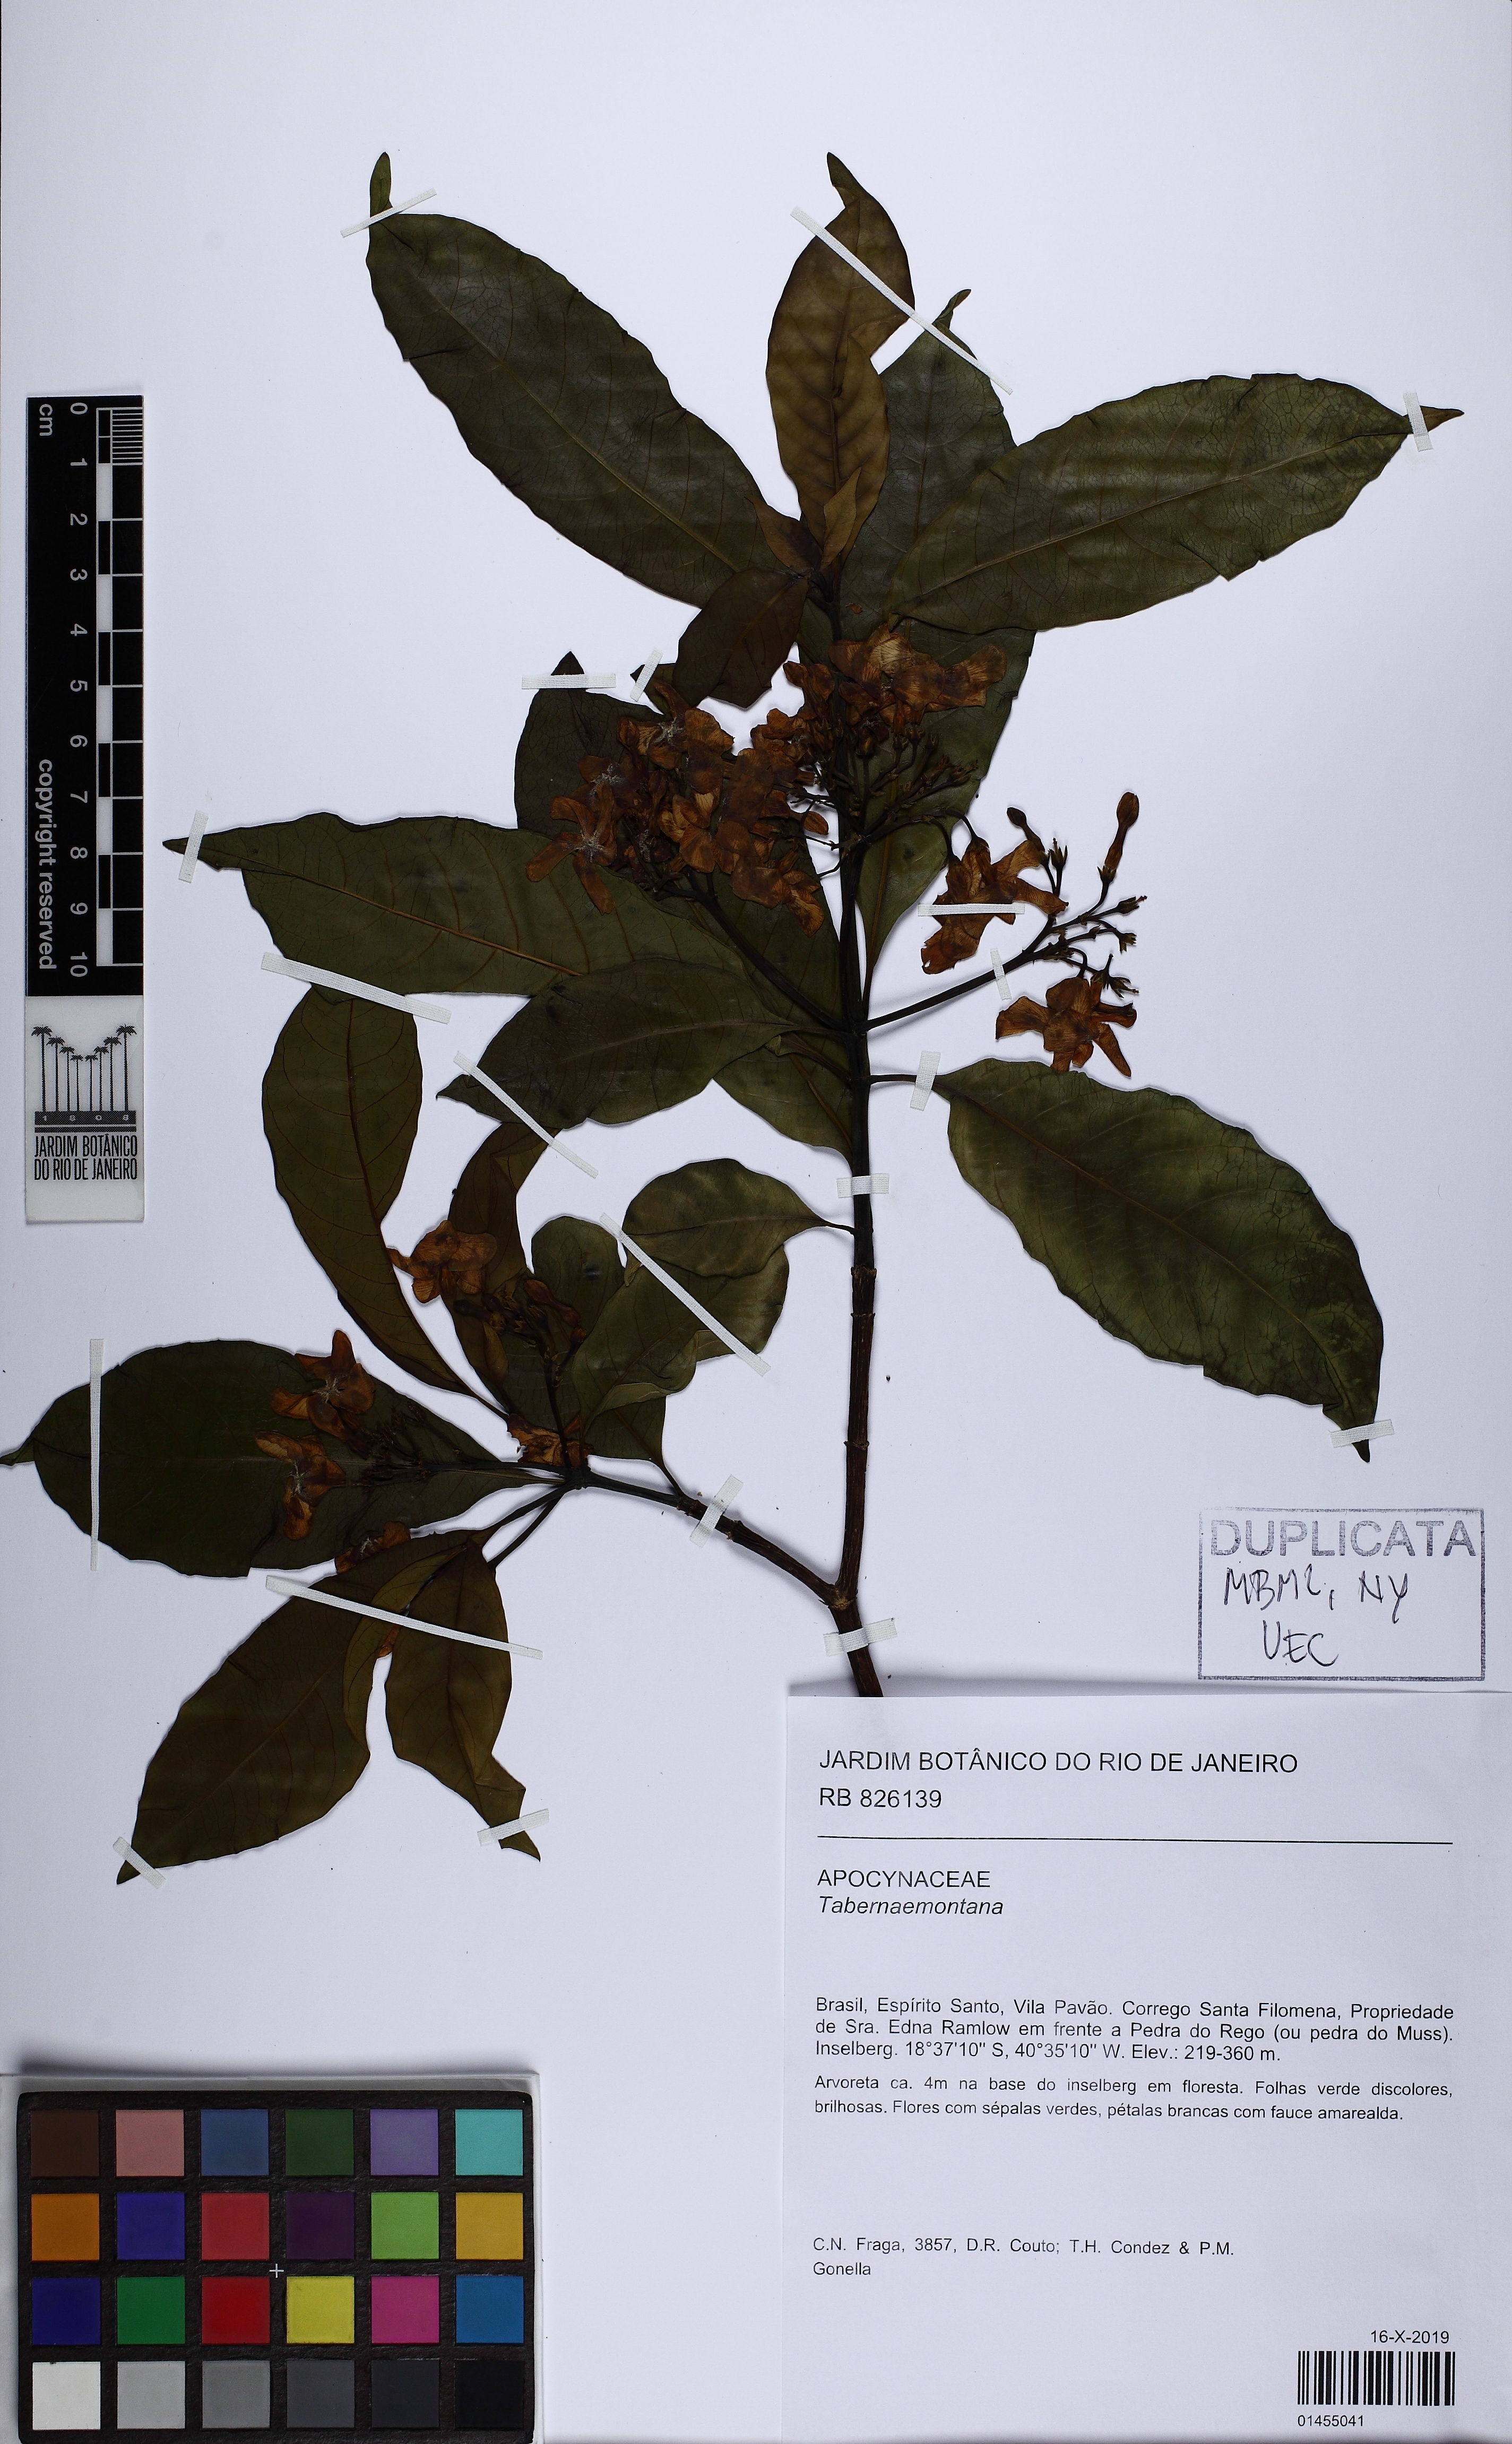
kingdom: Plantae
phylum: Tracheophyta
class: Magnoliopsida
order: Gentianales
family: Apocynaceae
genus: Tabernaemontana
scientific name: Tabernaemontana
